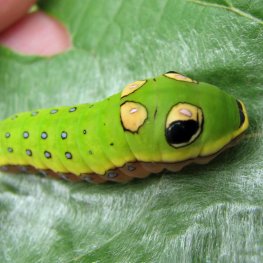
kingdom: Animalia
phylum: Arthropoda
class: Insecta
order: Lepidoptera
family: Papilionidae
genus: Pterourus
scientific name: Pterourus troilus
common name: Spicebush Swallowtail
